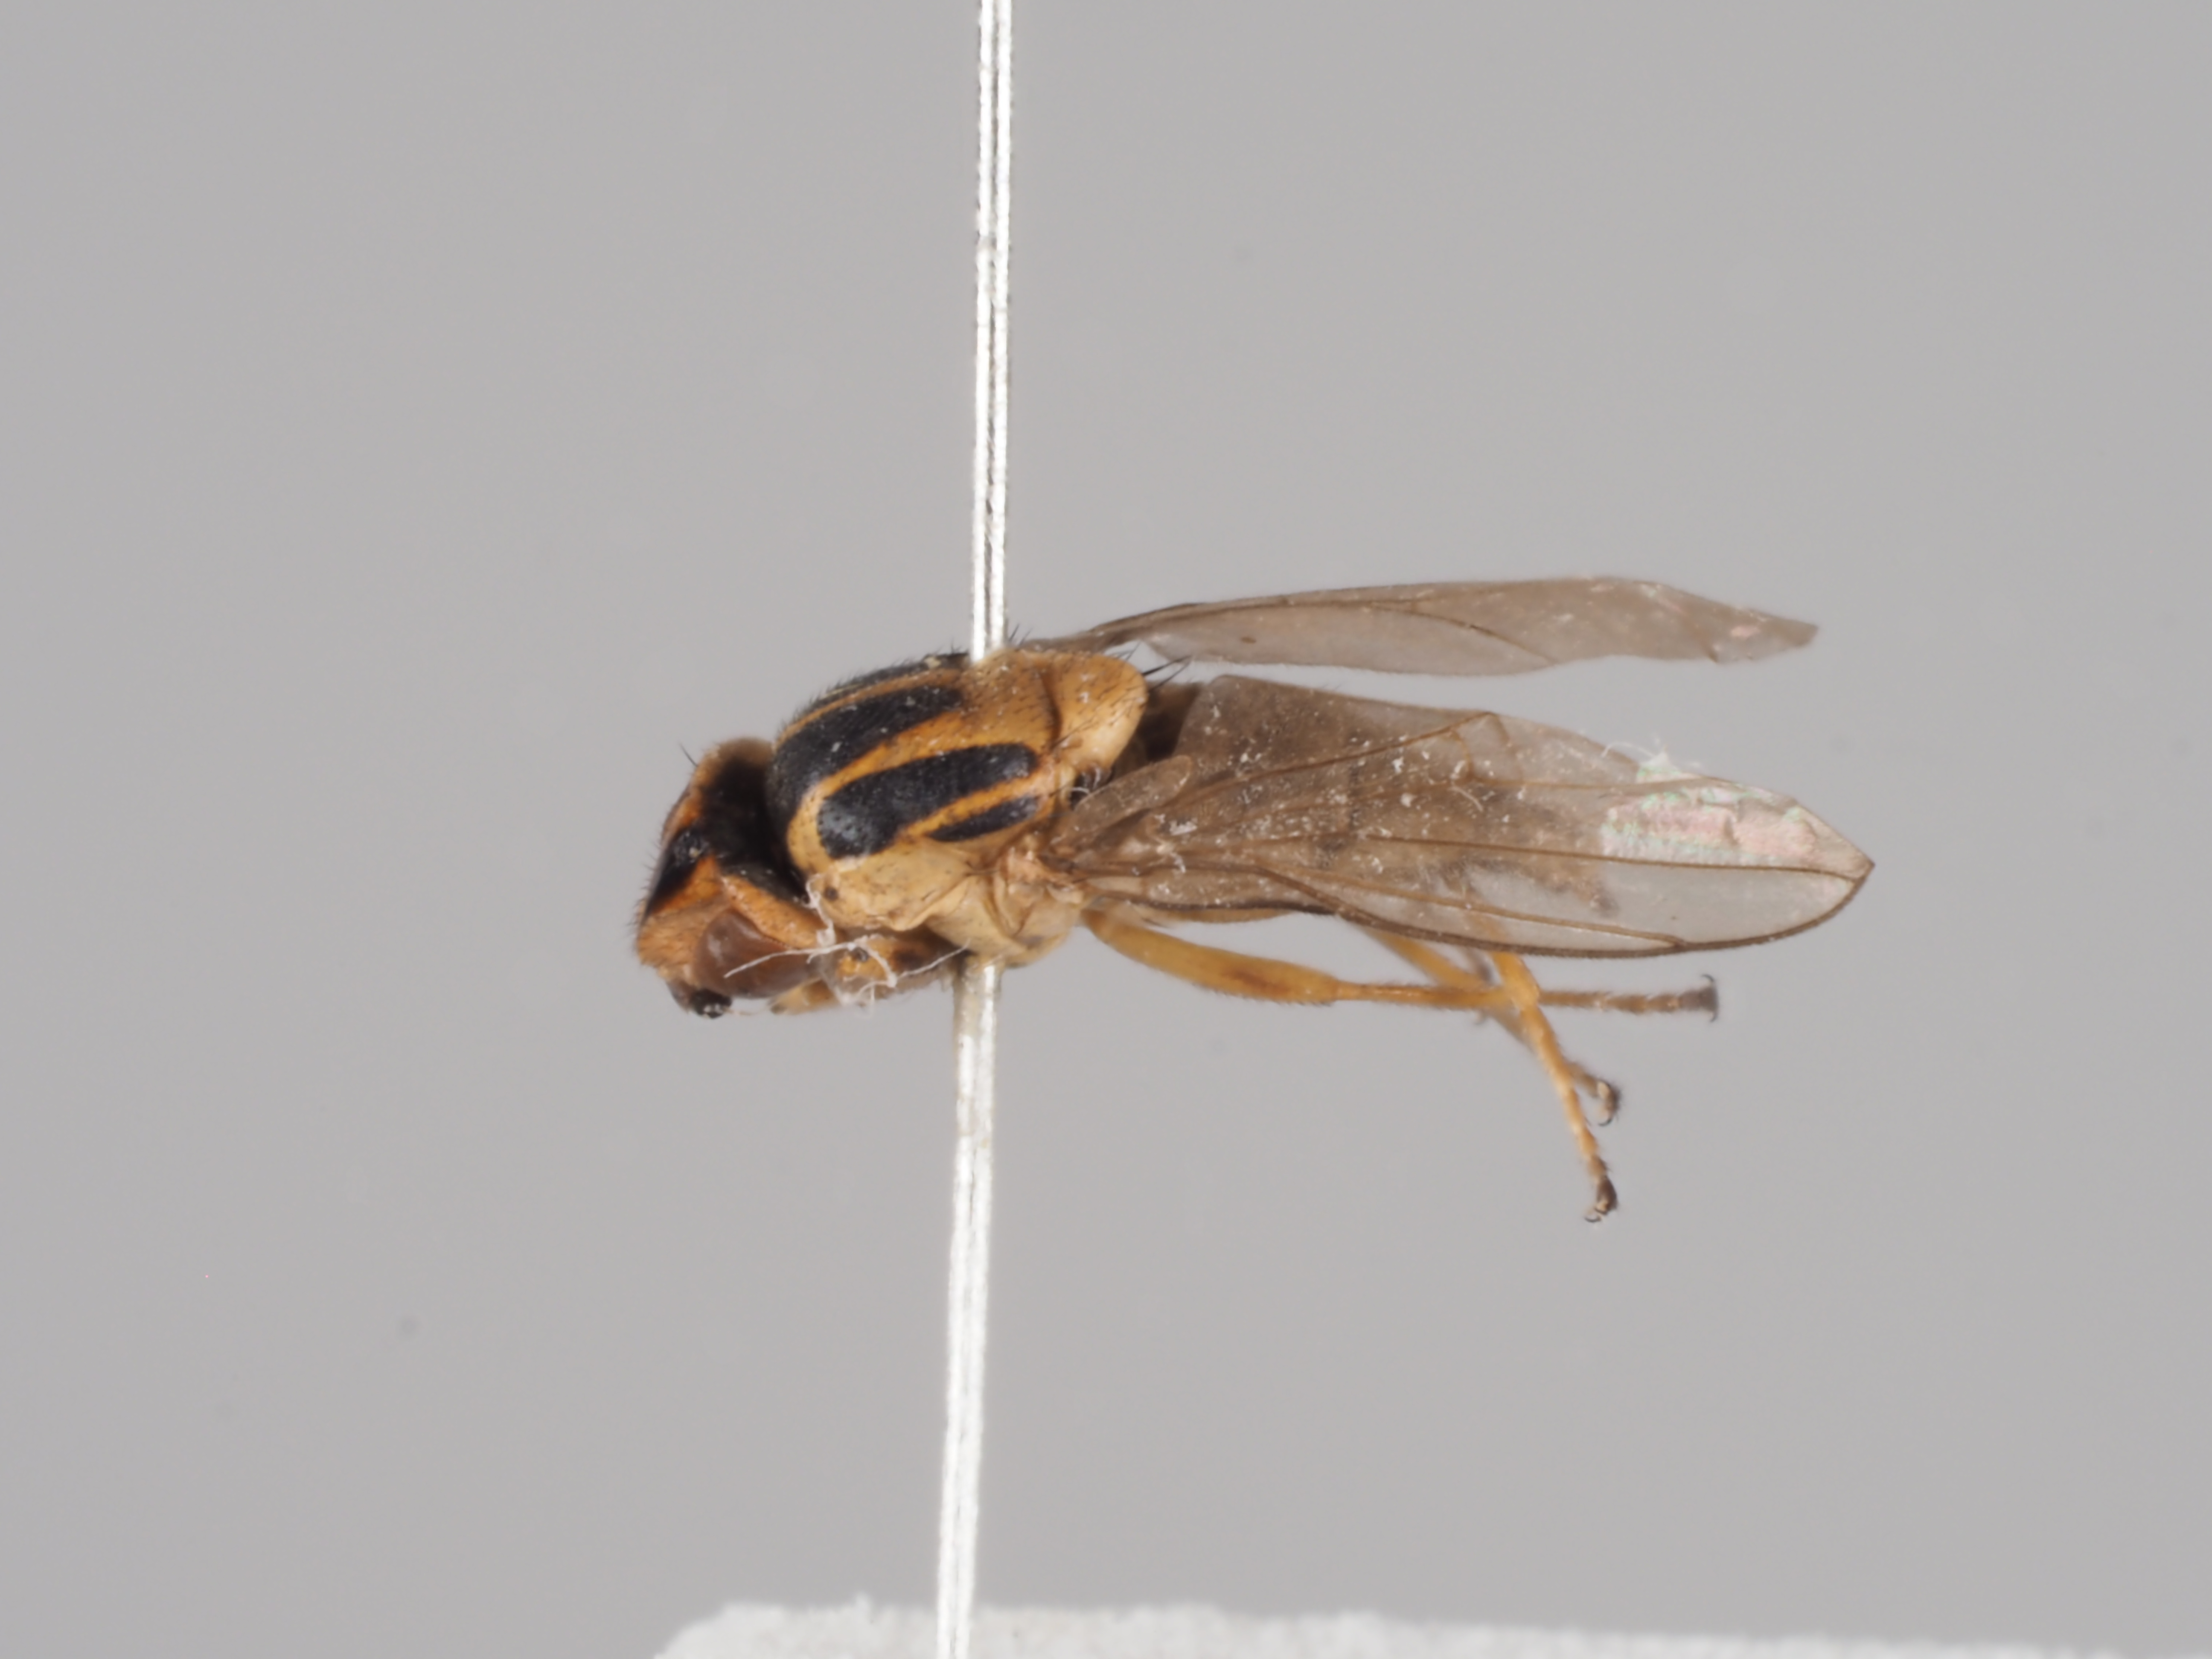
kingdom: Animalia
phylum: Arthropoda
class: Insecta
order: Diptera
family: Chloropidae
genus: Chlorops
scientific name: Chlorops nigripalpis
